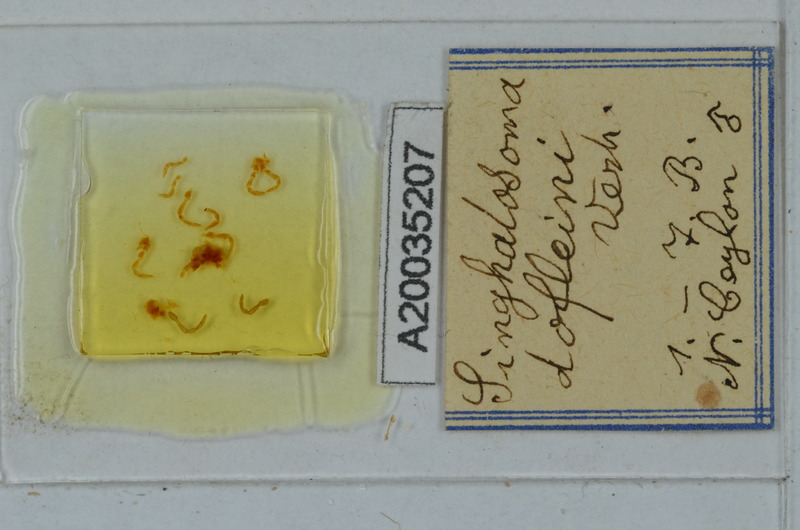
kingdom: Animalia
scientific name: Animalia
